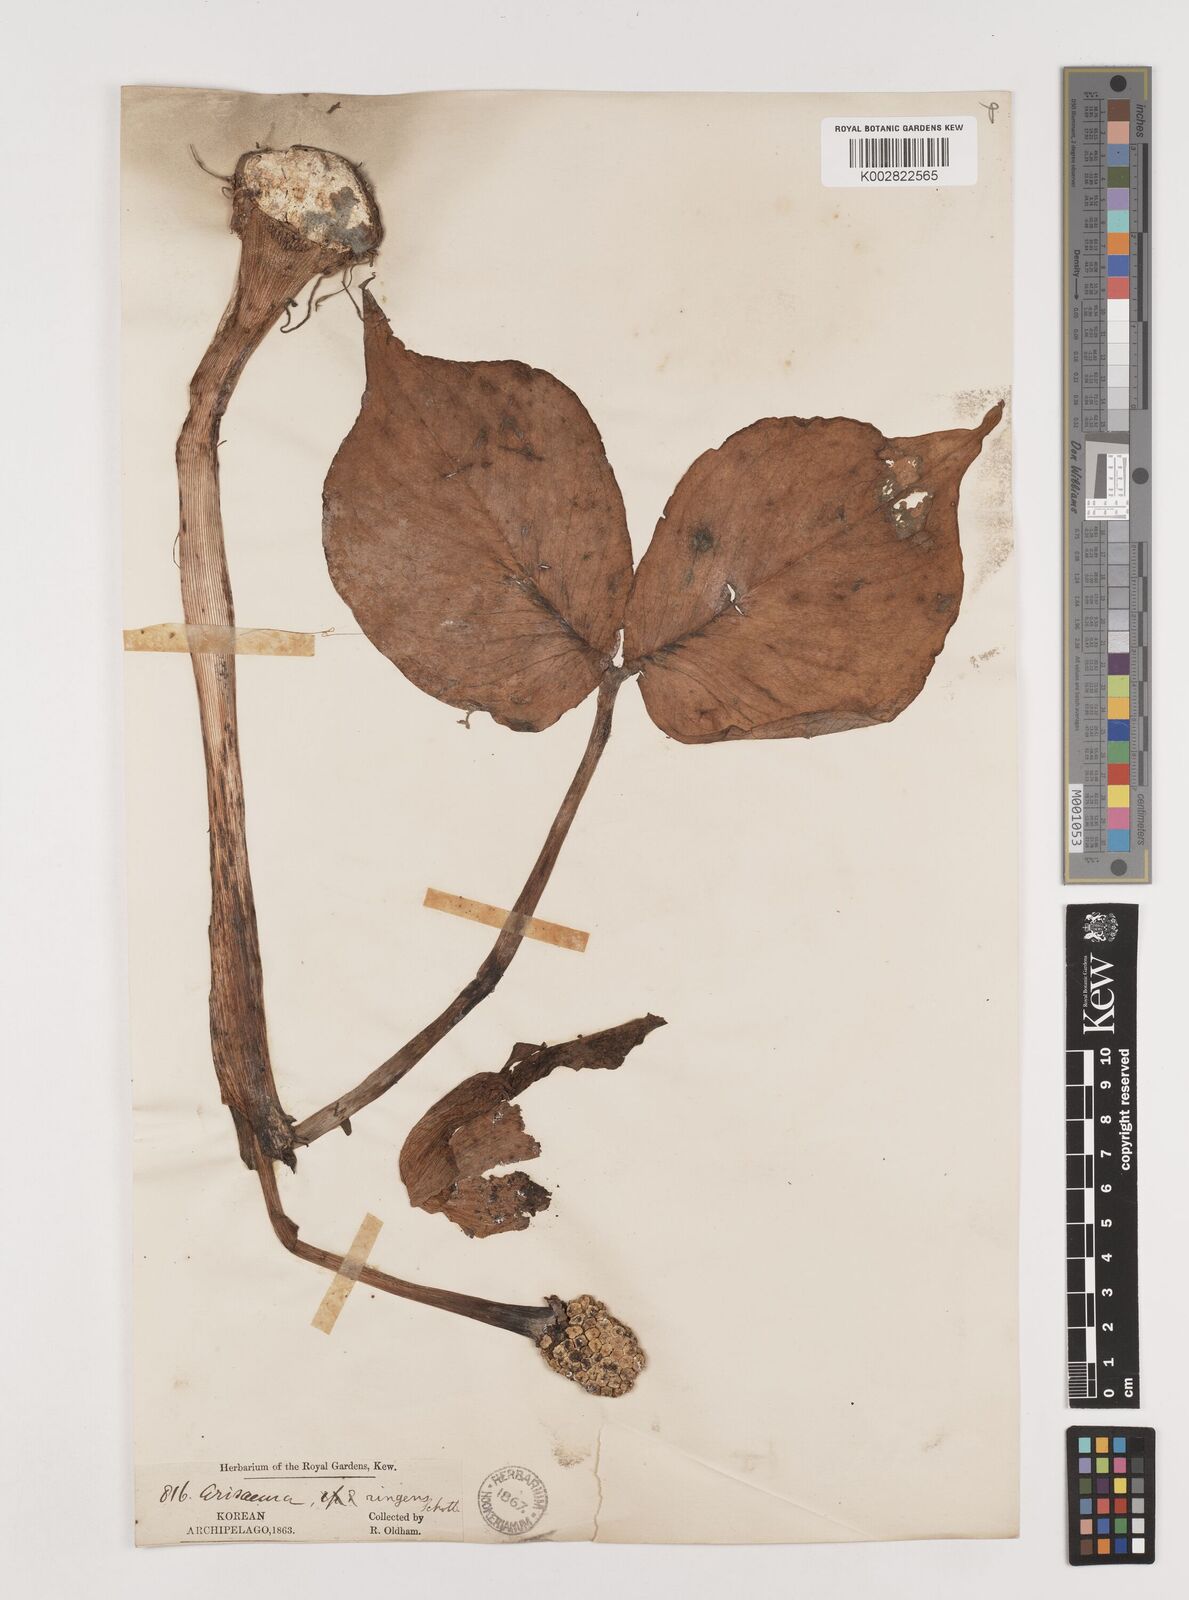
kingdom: Plantae
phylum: Tracheophyta
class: Liliopsida
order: Alismatales
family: Araceae
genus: Arisaema
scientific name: Arisaema ringens
